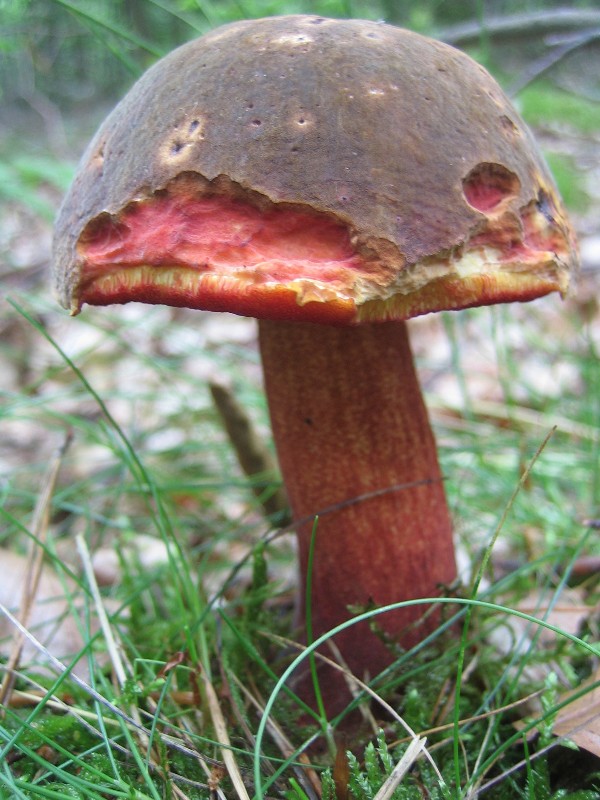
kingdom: Fungi
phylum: Basidiomycota
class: Agaricomycetes
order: Boletales
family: Boletaceae
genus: Neoboletus
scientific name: Neoboletus erythropus
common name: punktstokket indigorørhat
